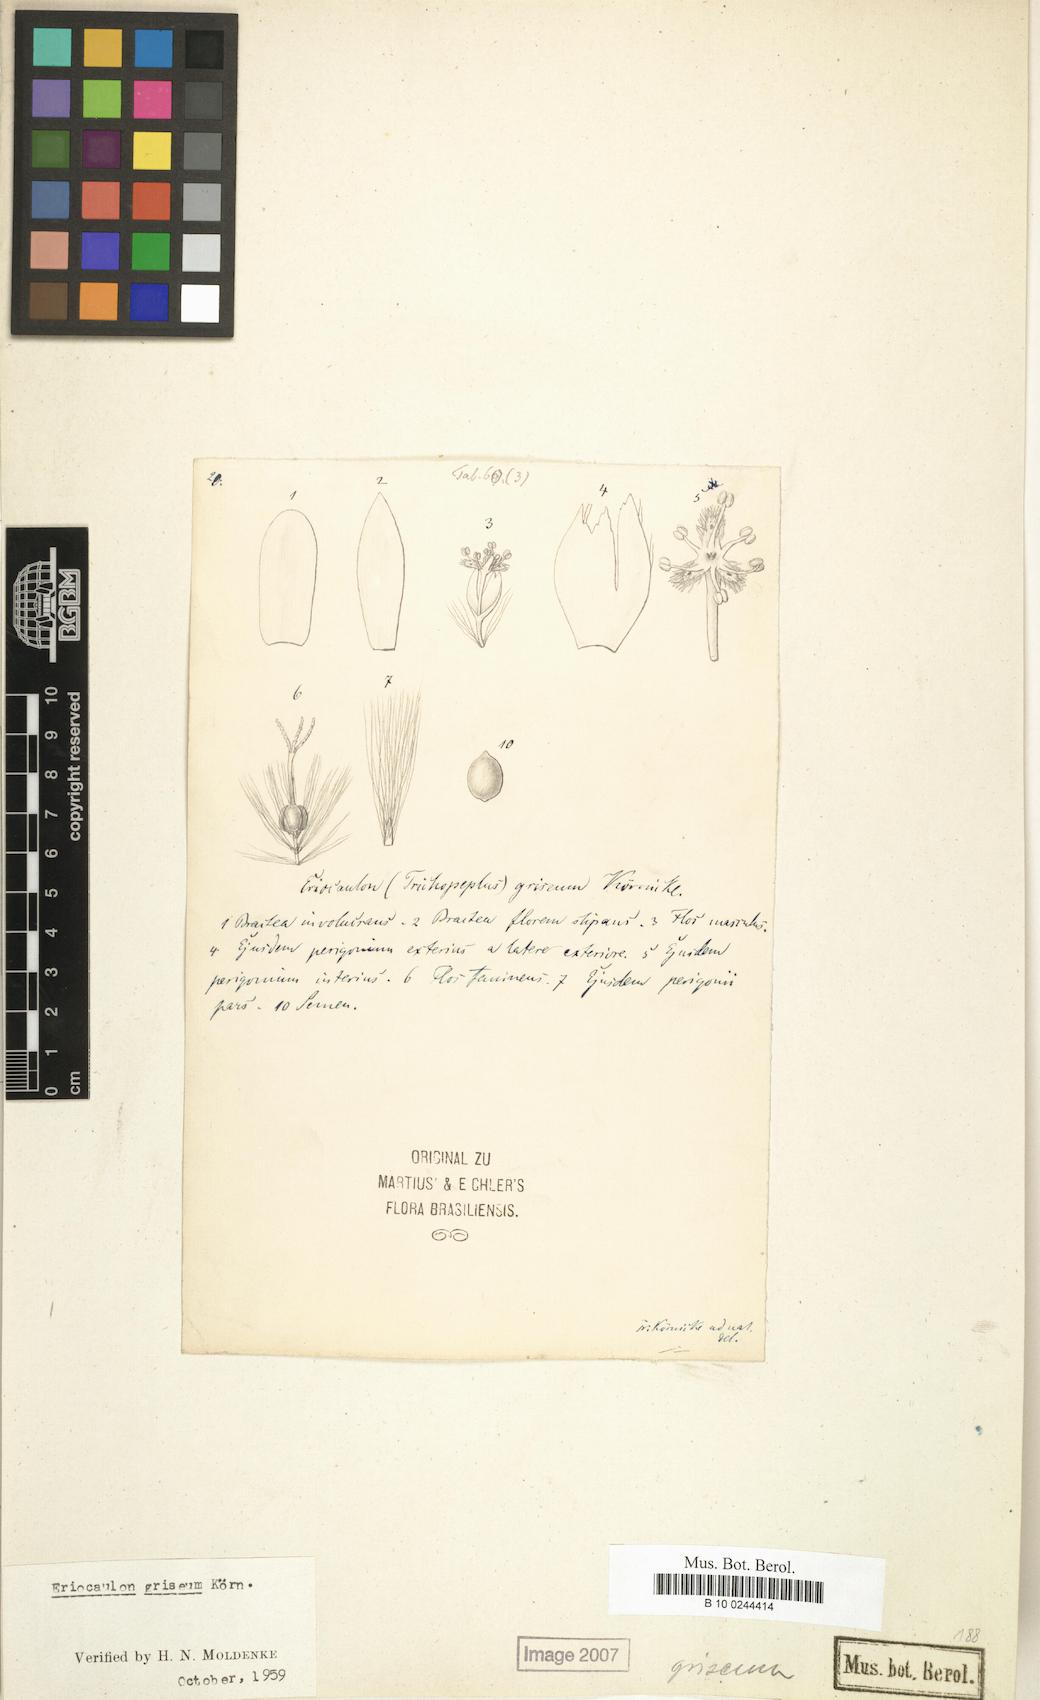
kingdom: Plantae
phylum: Tracheophyta
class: Liliopsida
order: Poales
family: Eriocaulaceae
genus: Eriocaulon
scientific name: Eriocaulon griseum
